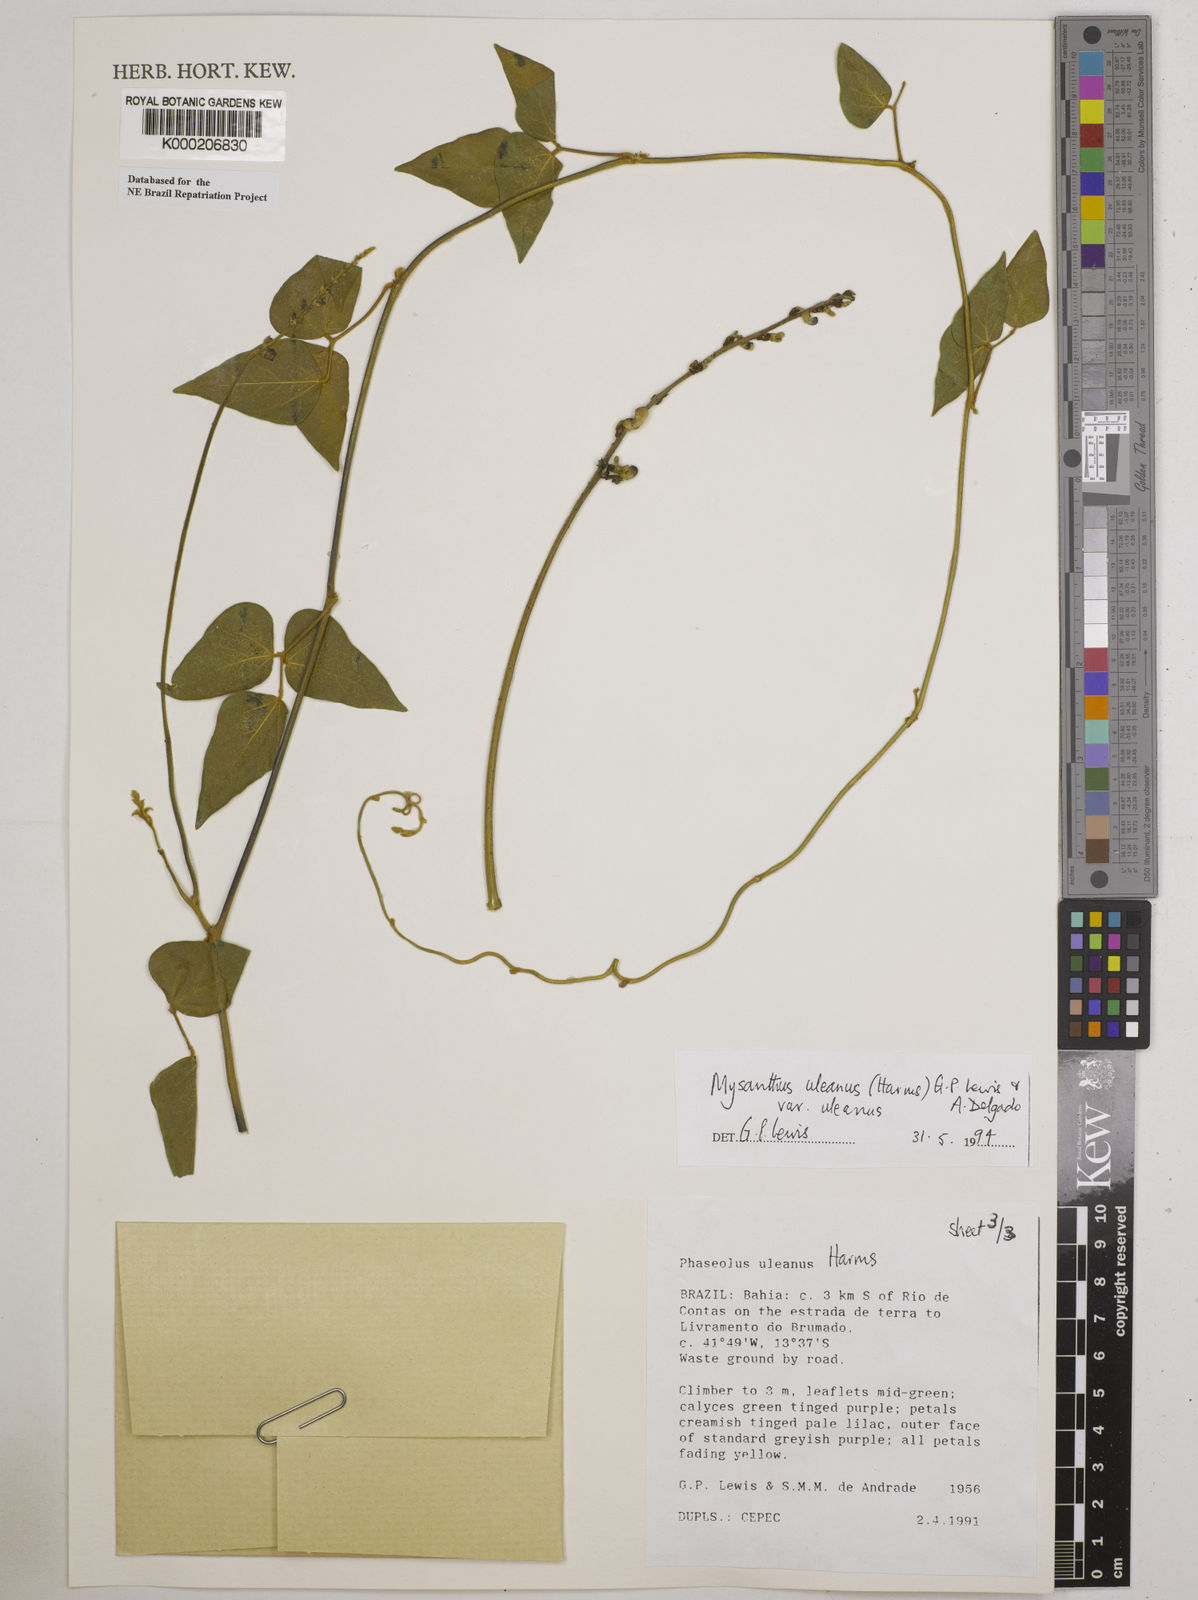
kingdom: Plantae
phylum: Tracheophyta
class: Magnoliopsida
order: Fabales
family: Fabaceae
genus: Mysanthus
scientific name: Mysanthus uleanus
